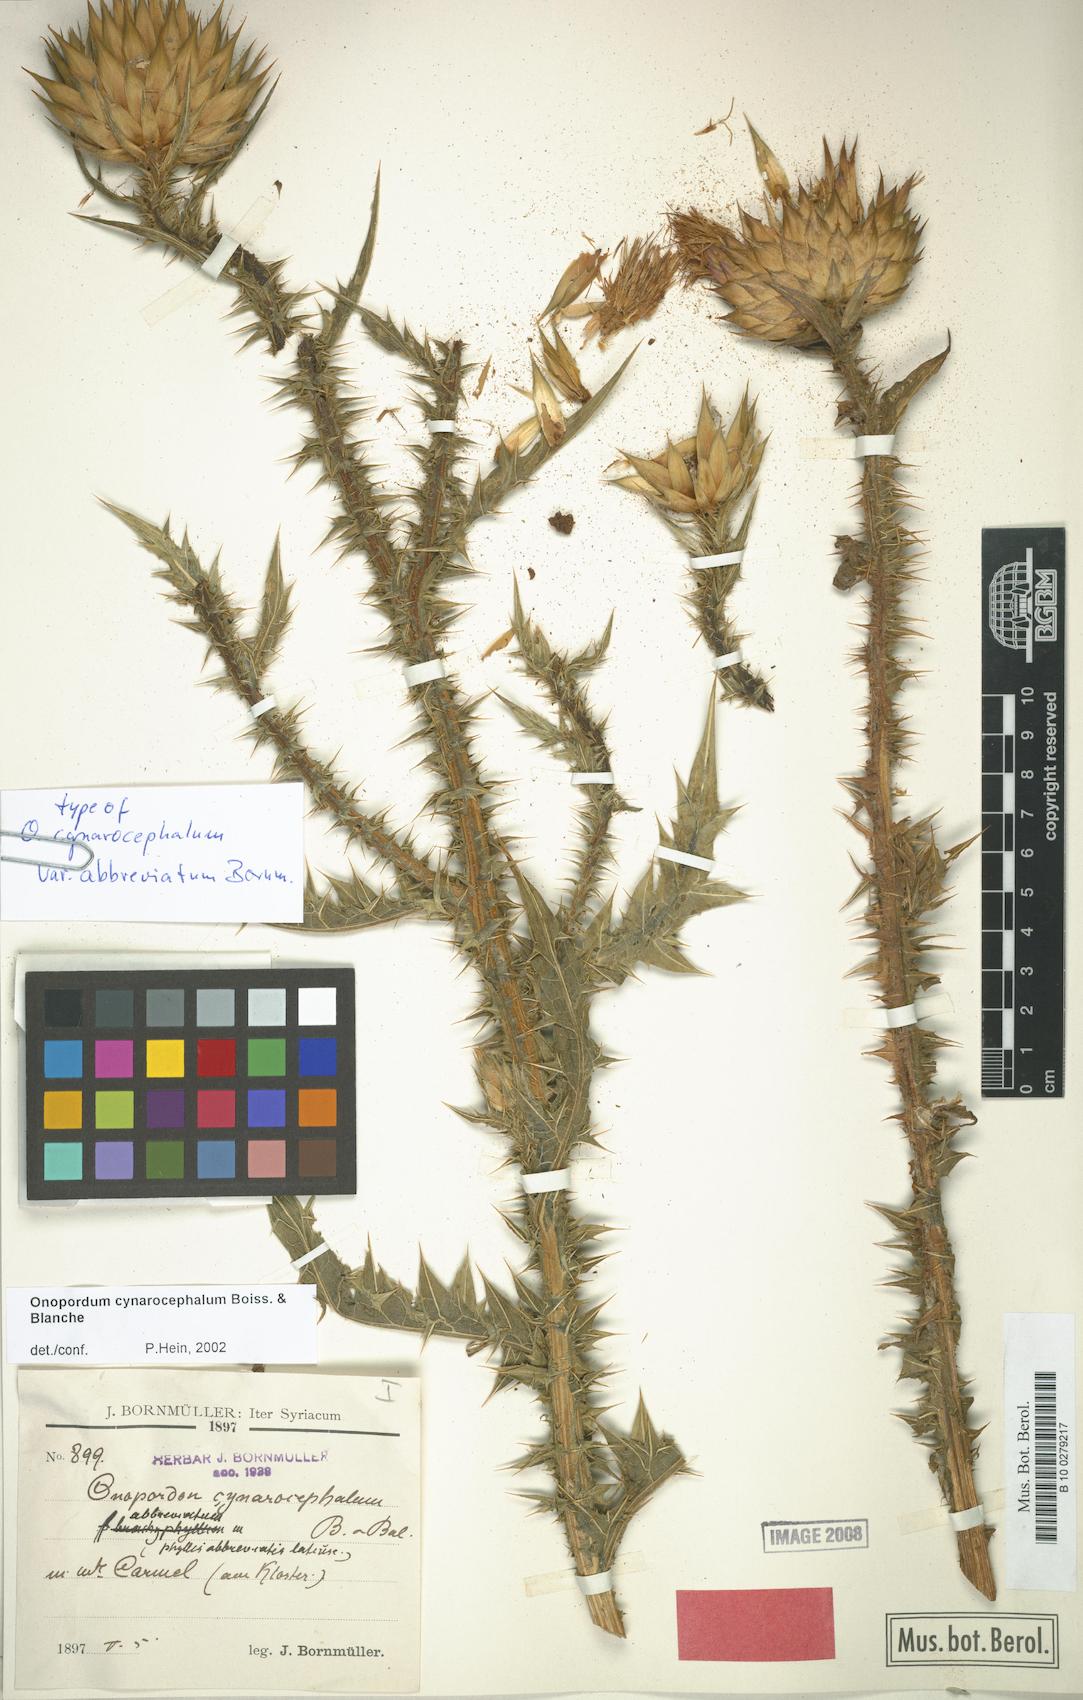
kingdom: Plantae
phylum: Tracheophyta
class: Magnoliopsida
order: Asterales
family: Asteraceae
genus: Onopordum
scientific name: Onopordum cynarocephalum
